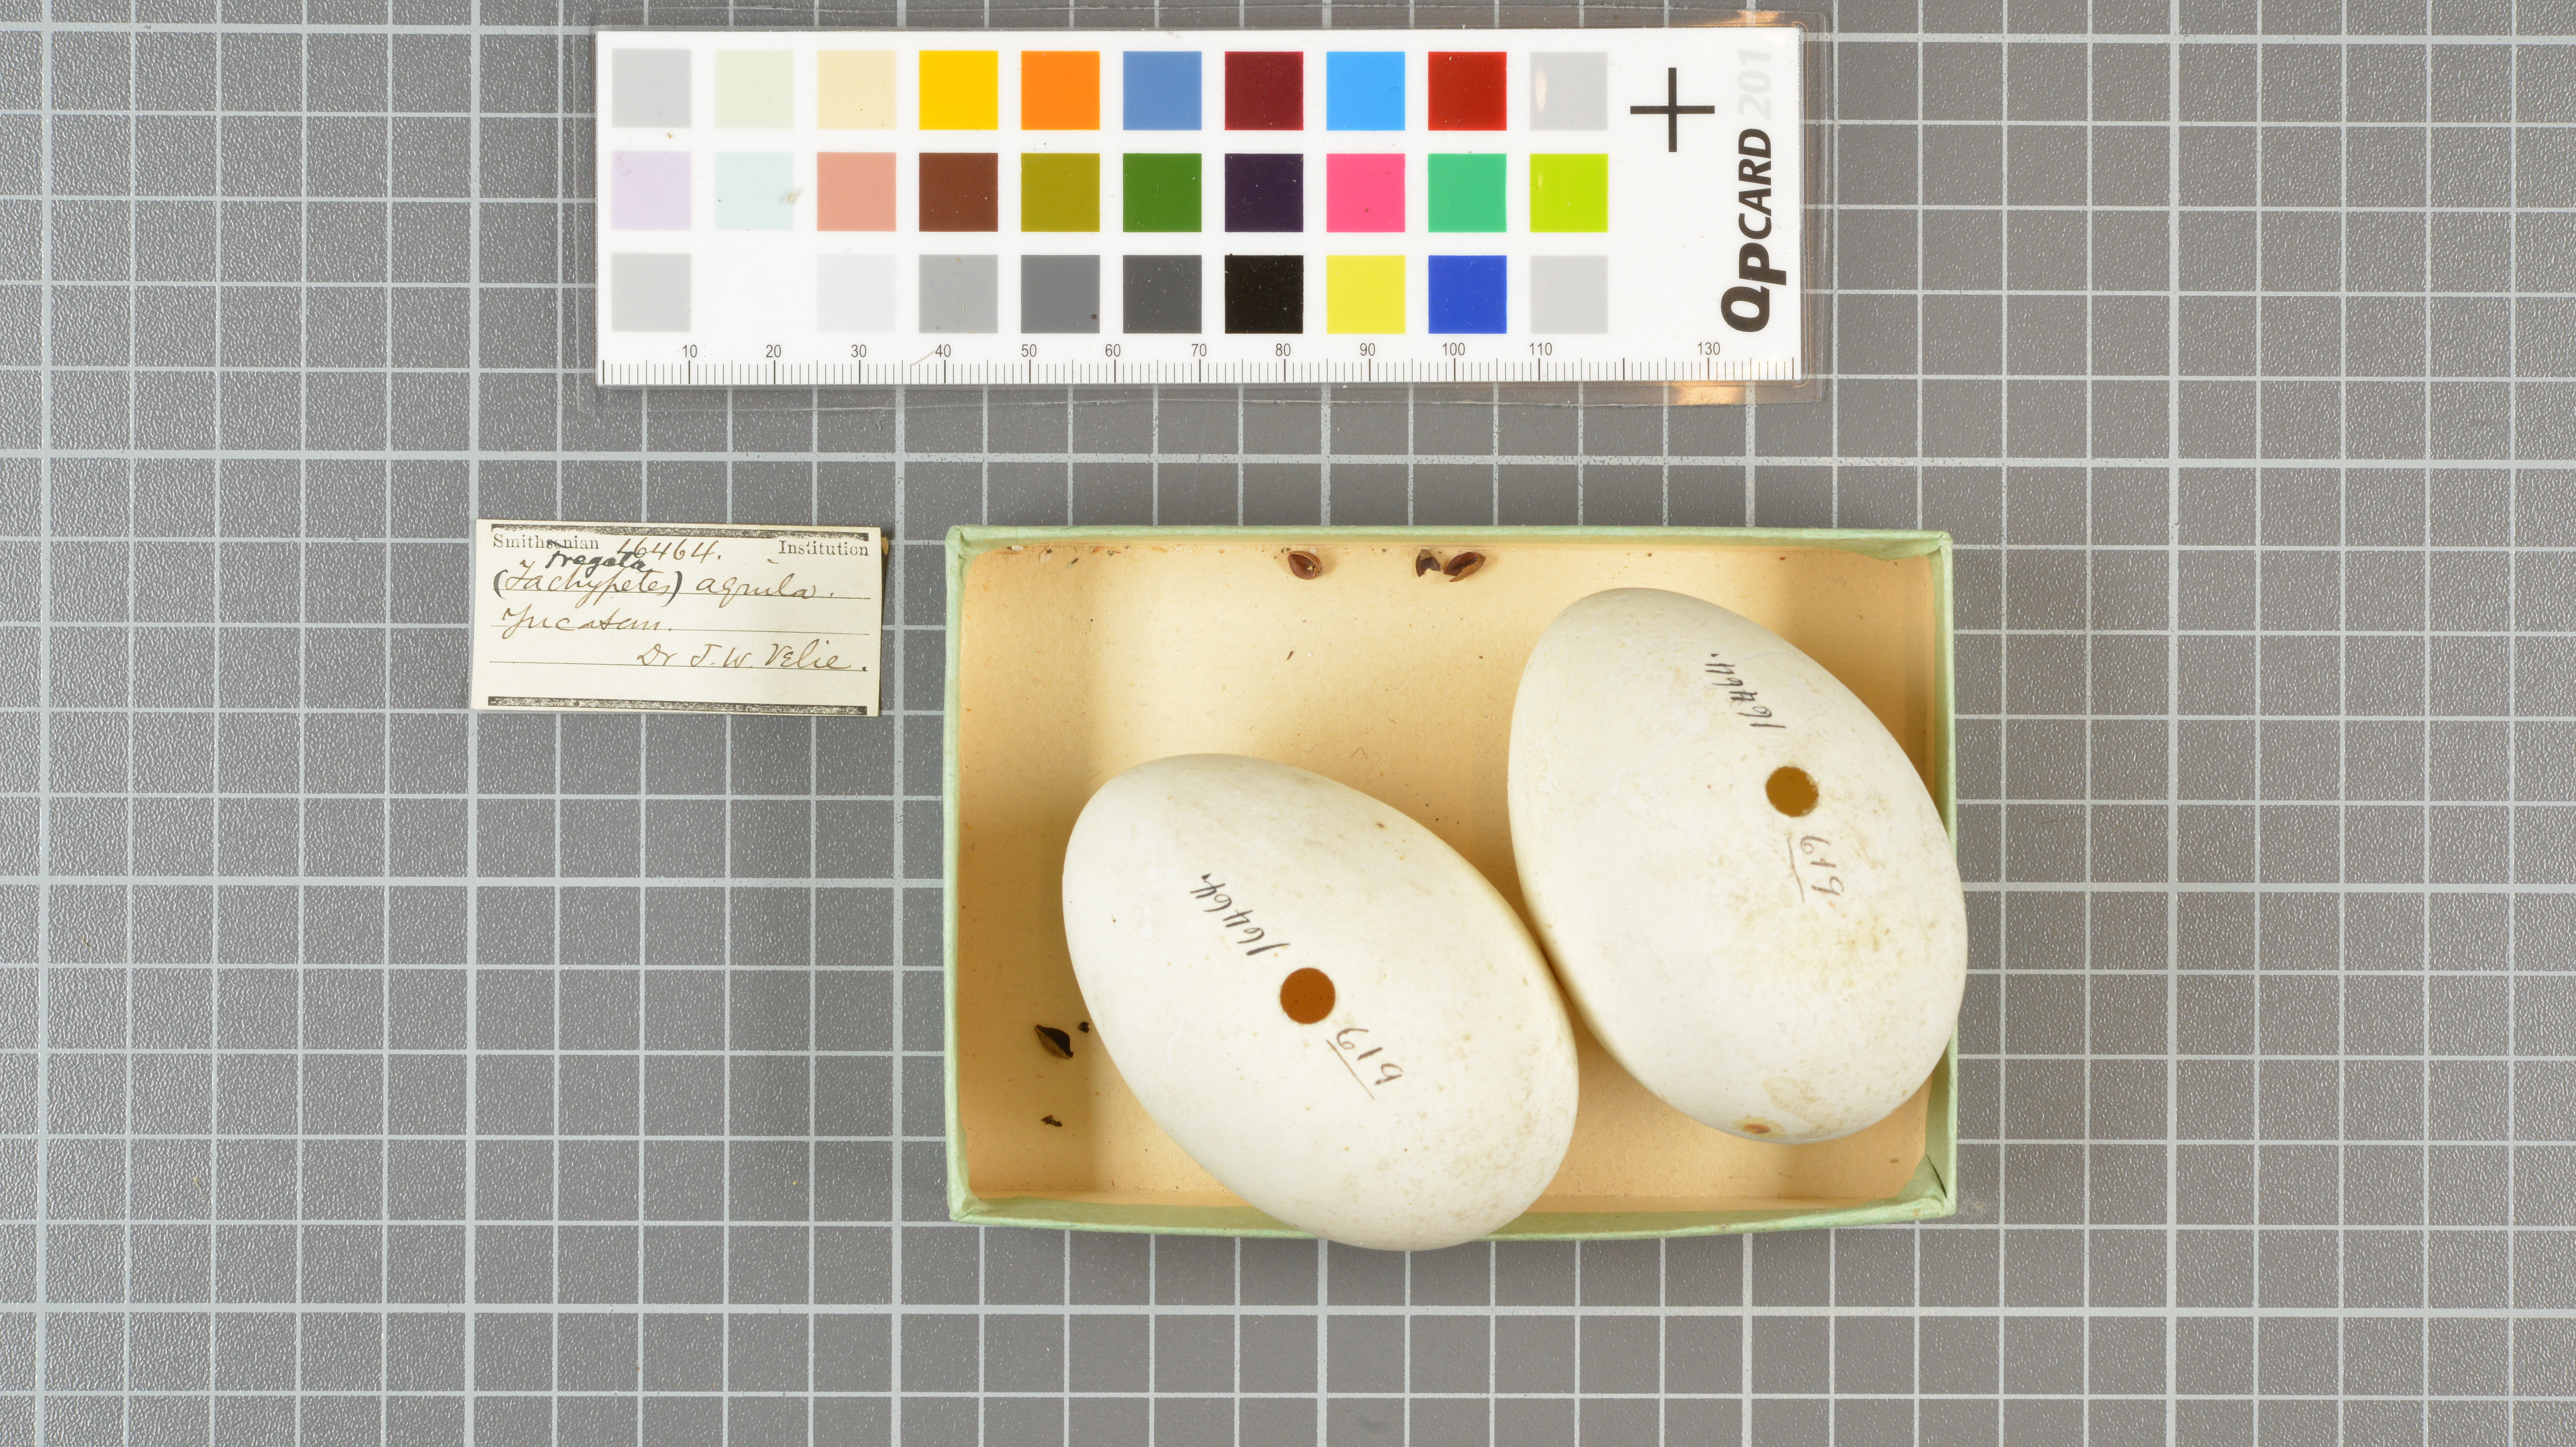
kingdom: Animalia
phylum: Chordata
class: Aves
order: Suliformes
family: Fregatidae
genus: Fregata
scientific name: Fregata aquila
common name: Ascension frigatebird
